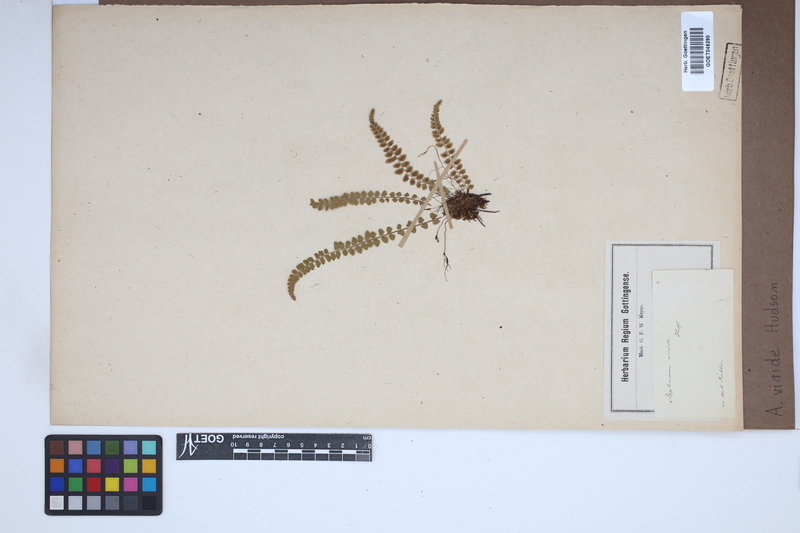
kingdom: Plantae
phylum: Tracheophyta
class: Polypodiopsida
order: Polypodiales
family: Aspleniaceae
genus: Asplenium
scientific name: Asplenium viride
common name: Green spleenwort
